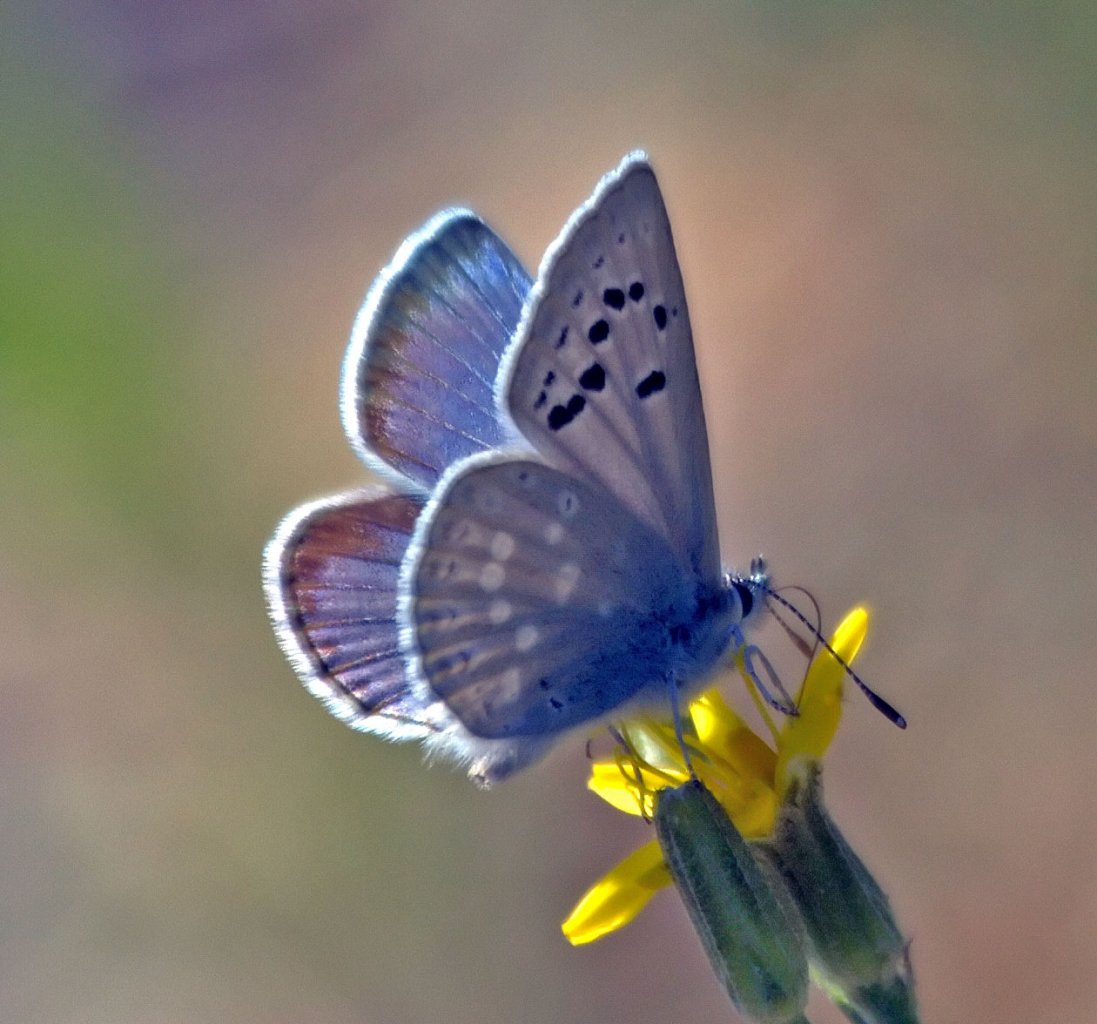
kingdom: Animalia
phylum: Arthropoda
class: Insecta
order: Lepidoptera
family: Lycaenidae
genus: Icaricia
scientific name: Icaricia icarioides
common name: Boisduval's Blue
